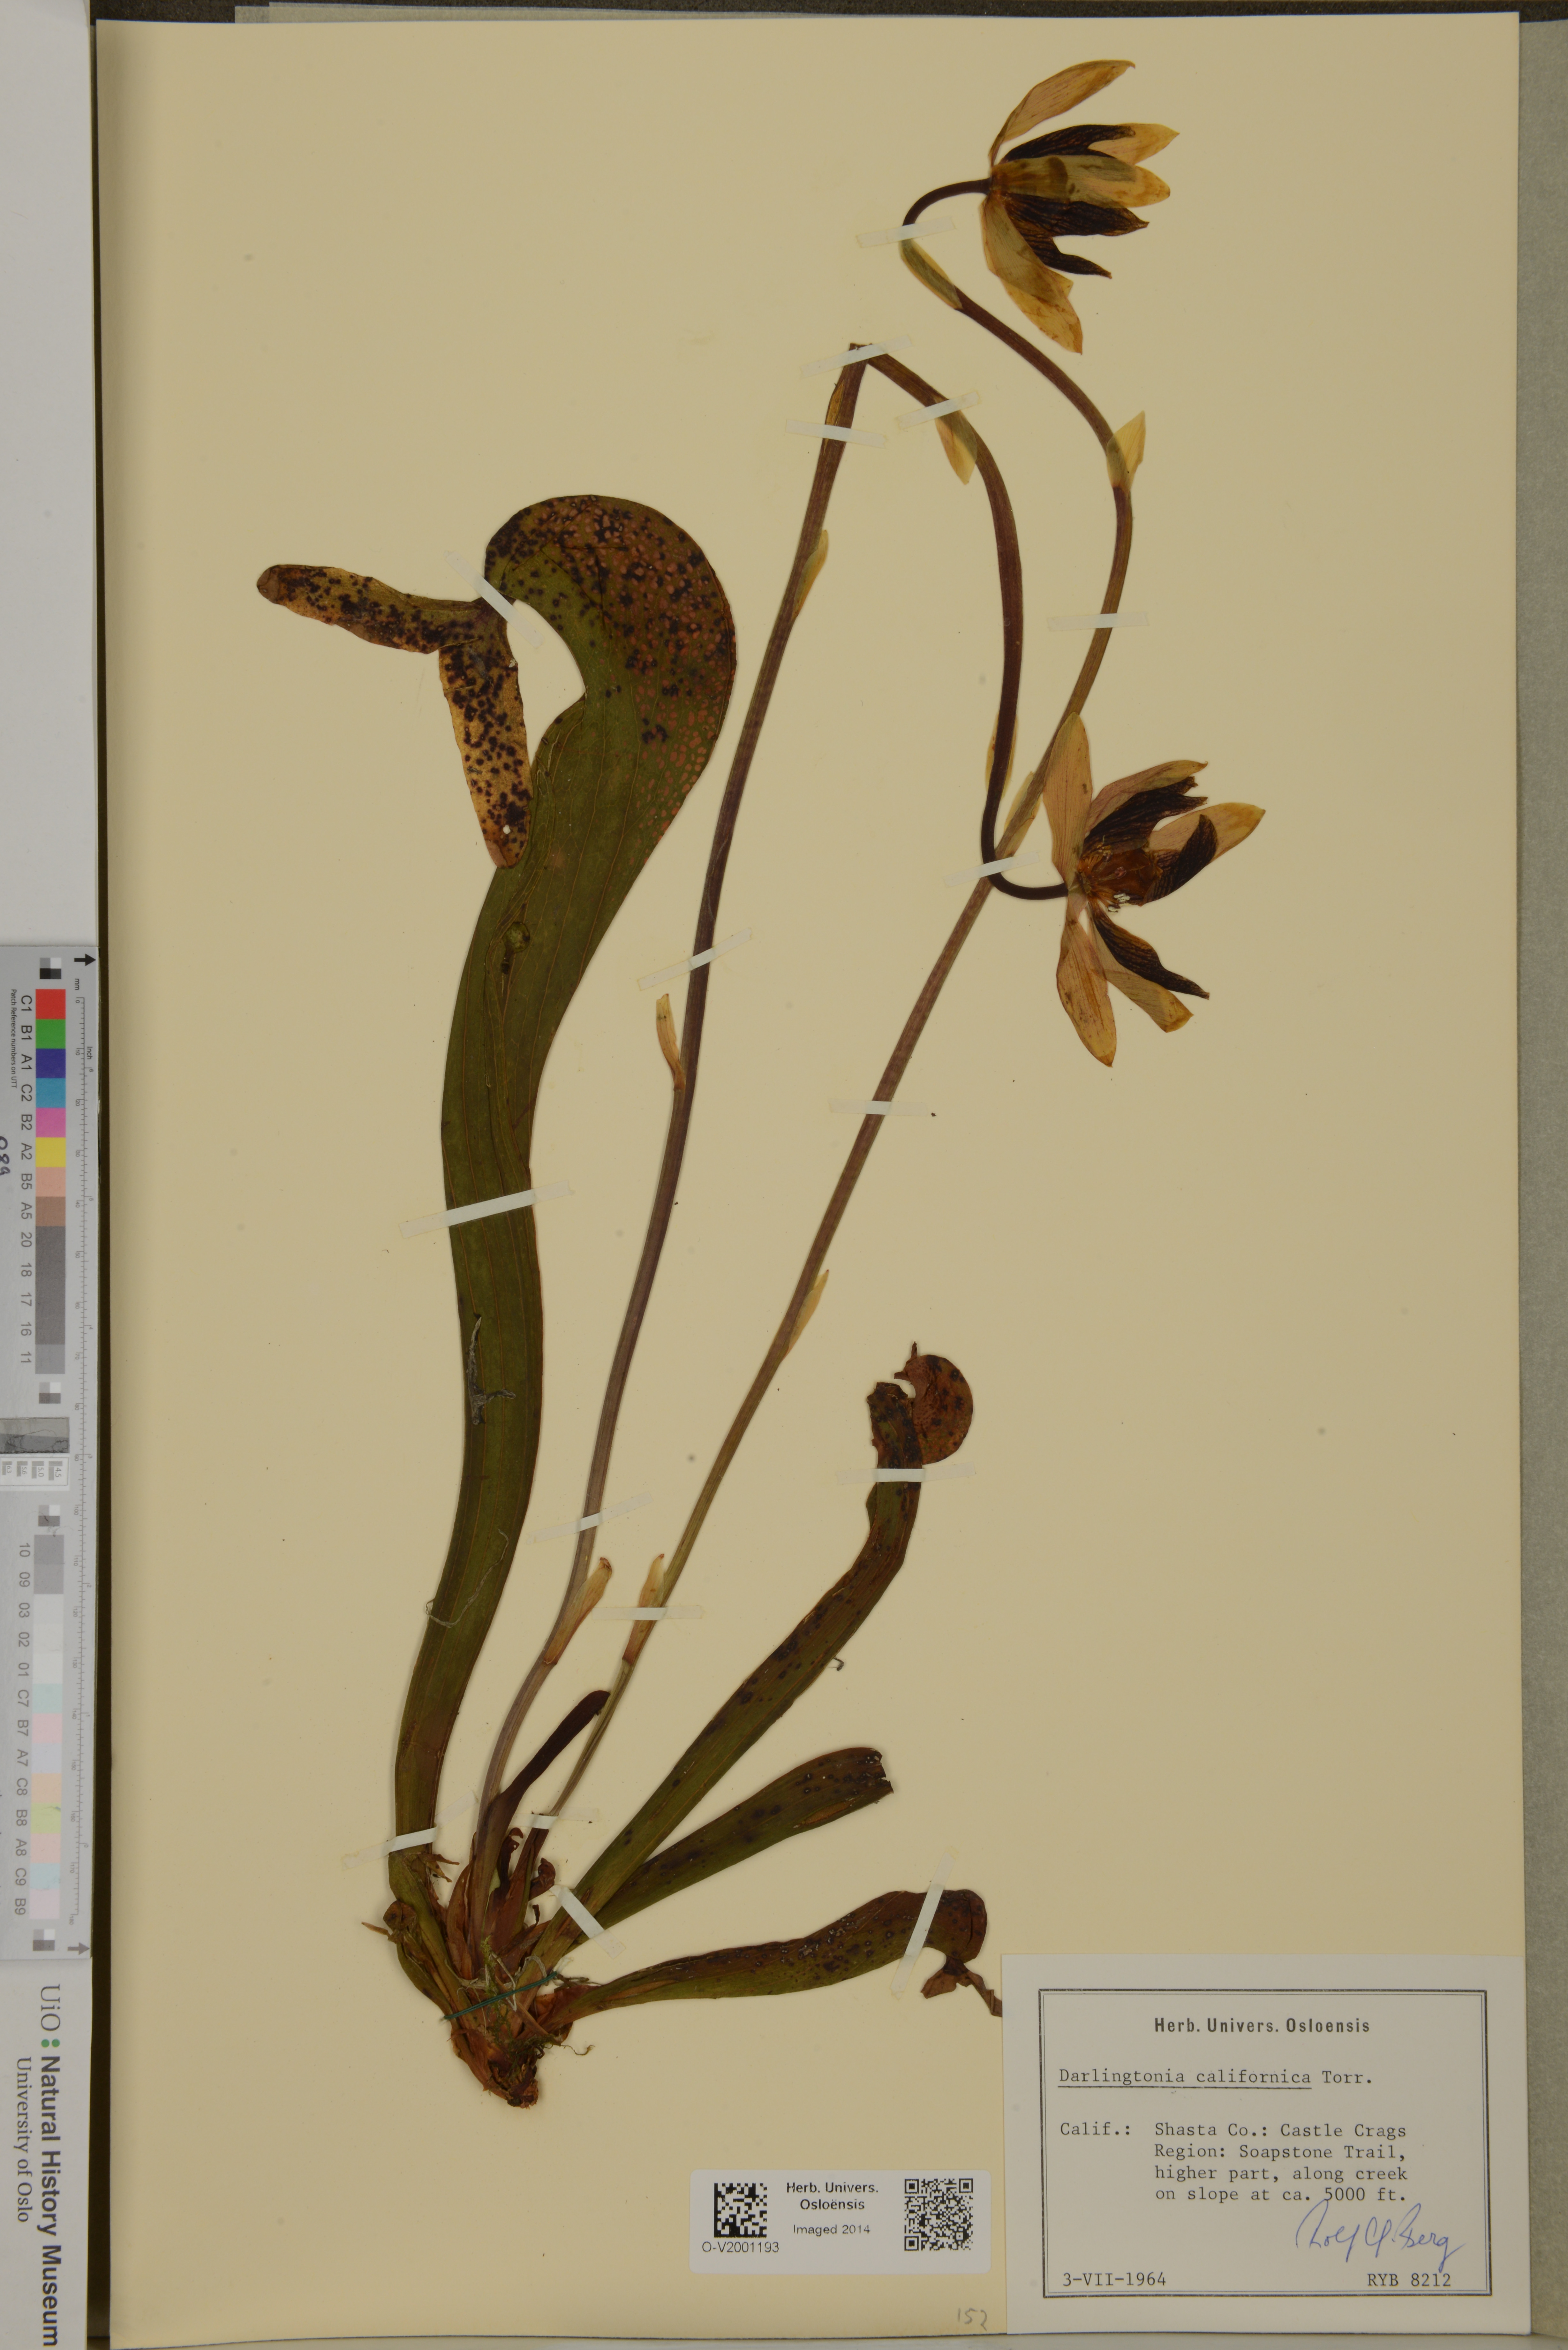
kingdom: Plantae
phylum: Tracheophyta
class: Magnoliopsida
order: Ericales
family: Sarraceniaceae
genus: Darlingtonia
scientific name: Darlingtonia californica
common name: California pitcher plant
